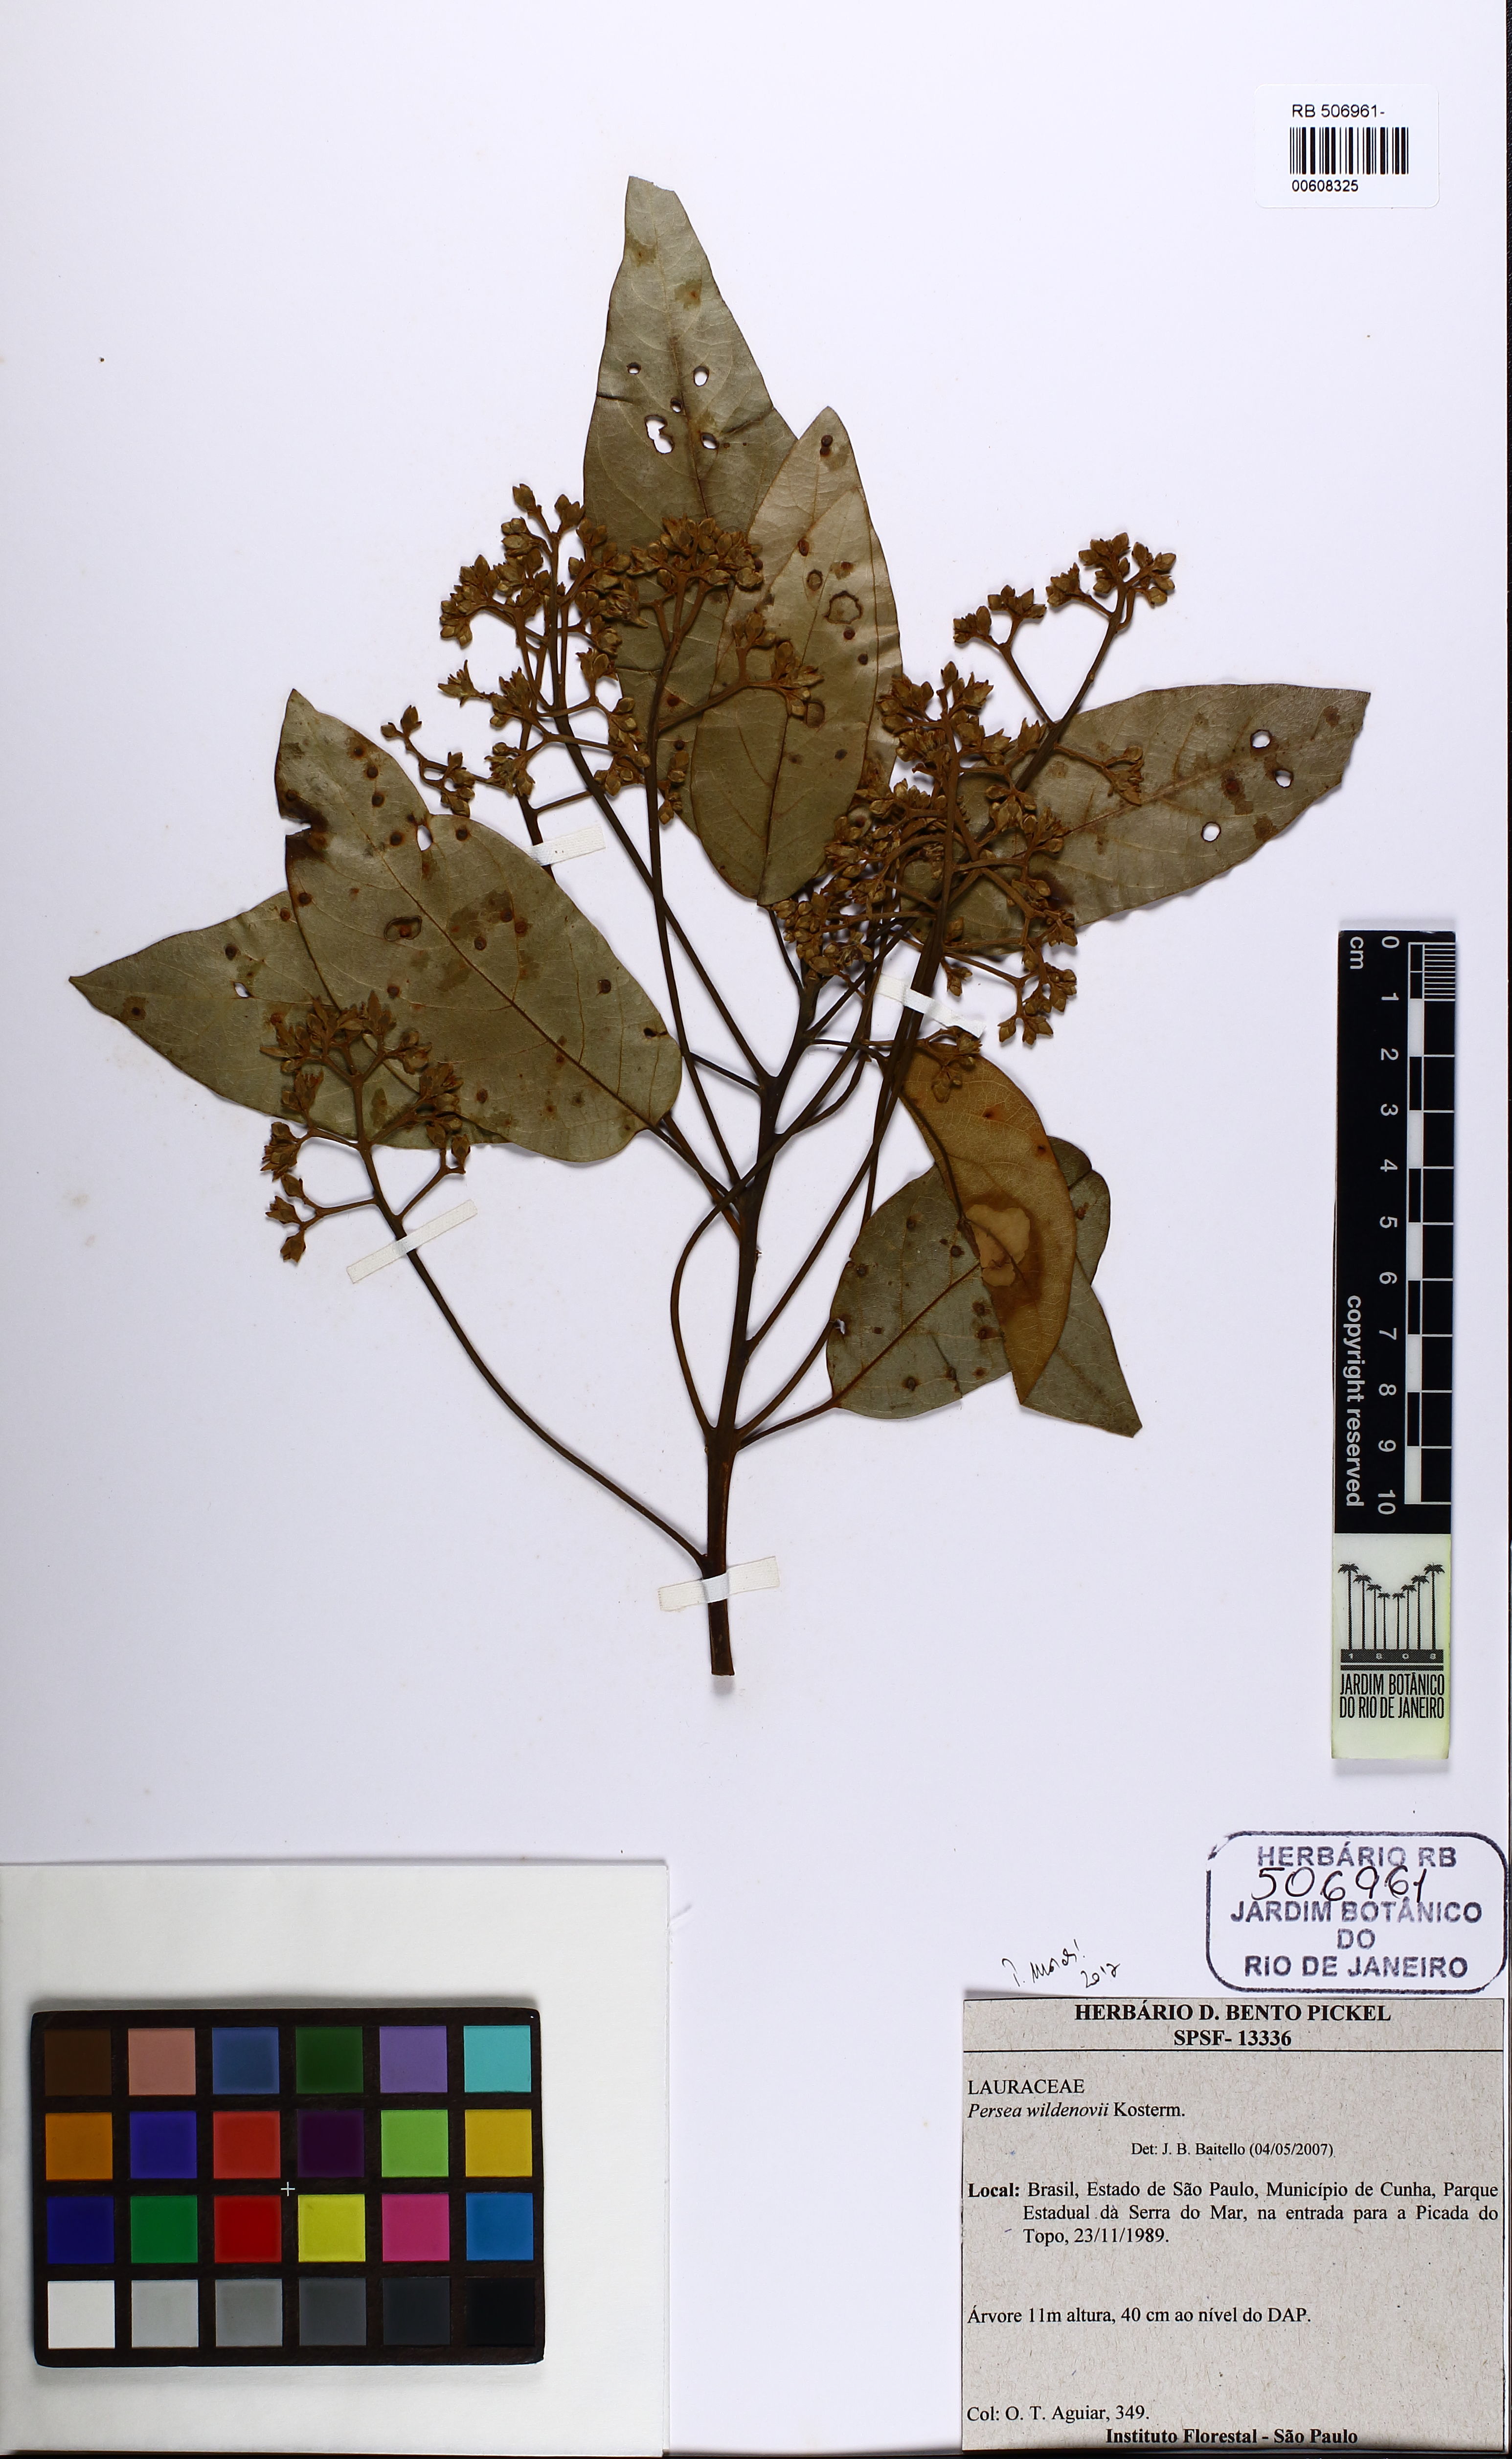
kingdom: Plantae
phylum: Tracheophyta
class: Magnoliopsida
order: Laurales
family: Lauraceae
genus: Persea
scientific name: Persea willdenovii
